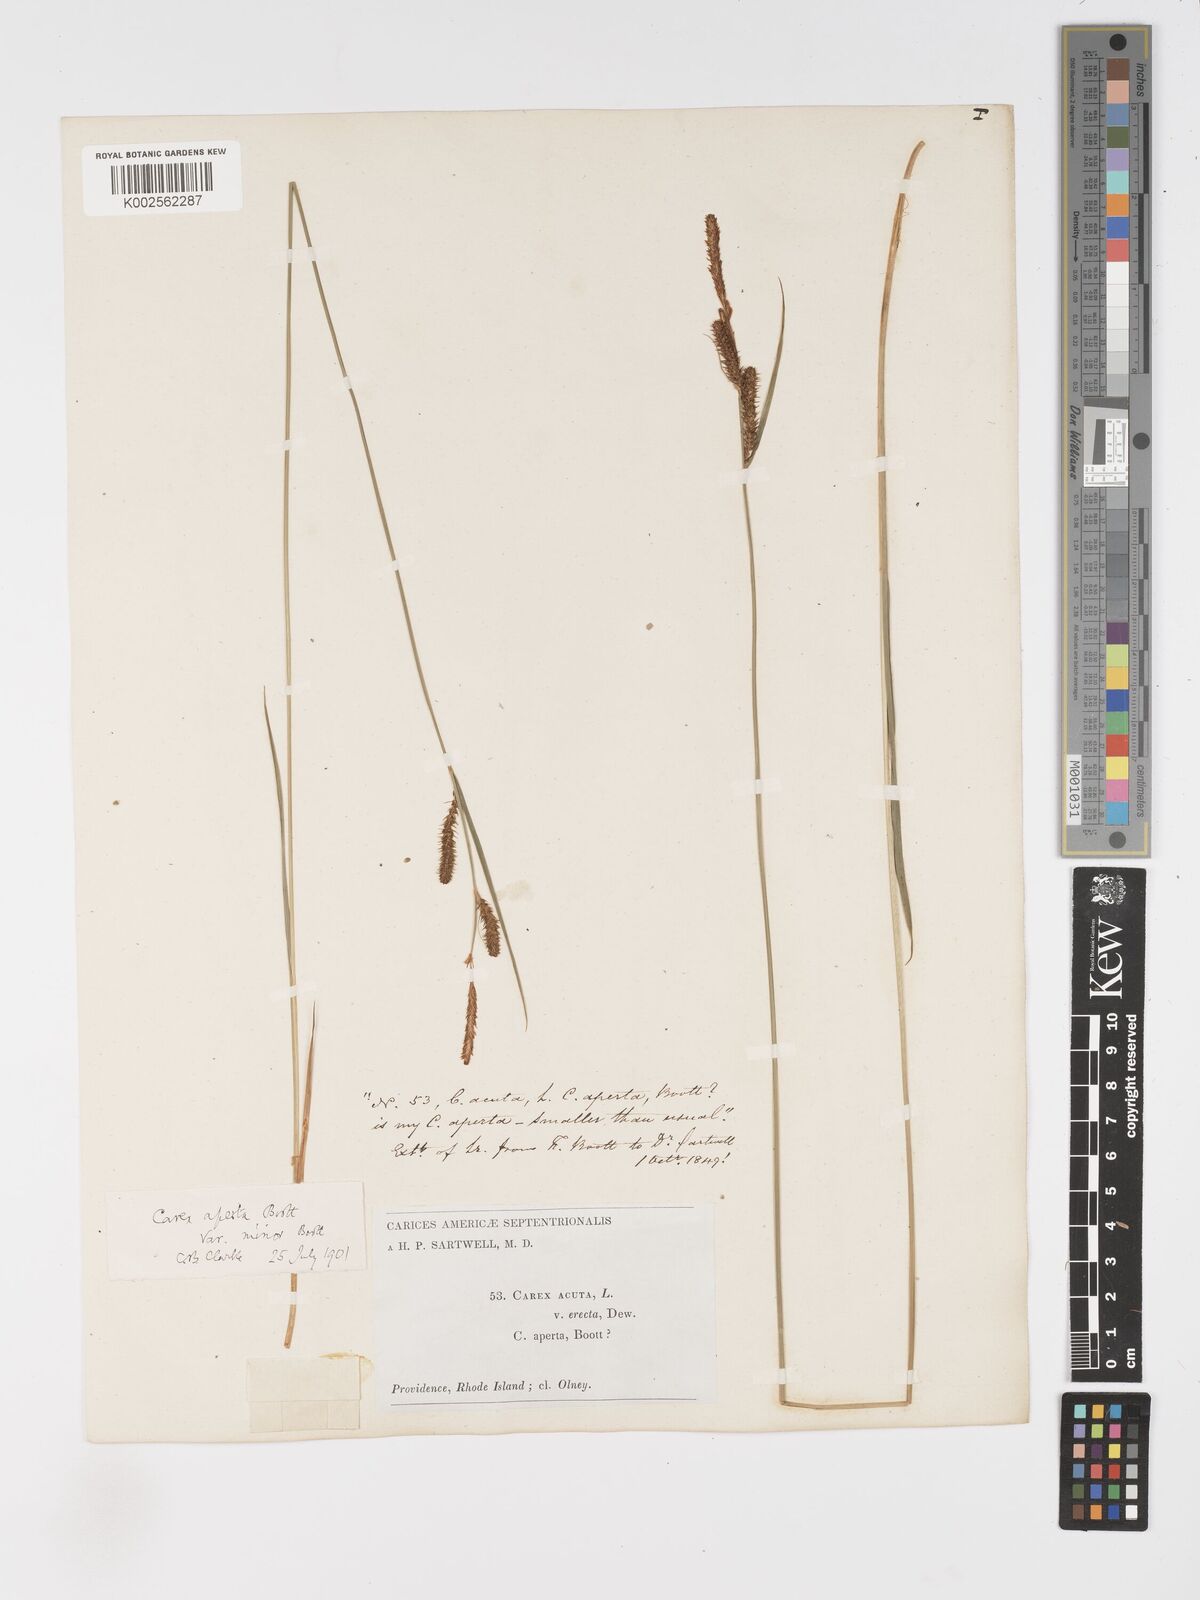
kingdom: Plantae
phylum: Tracheophyta
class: Liliopsida
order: Poales
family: Cyperaceae
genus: Carex
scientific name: Carex aperta
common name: Columbia sedge
